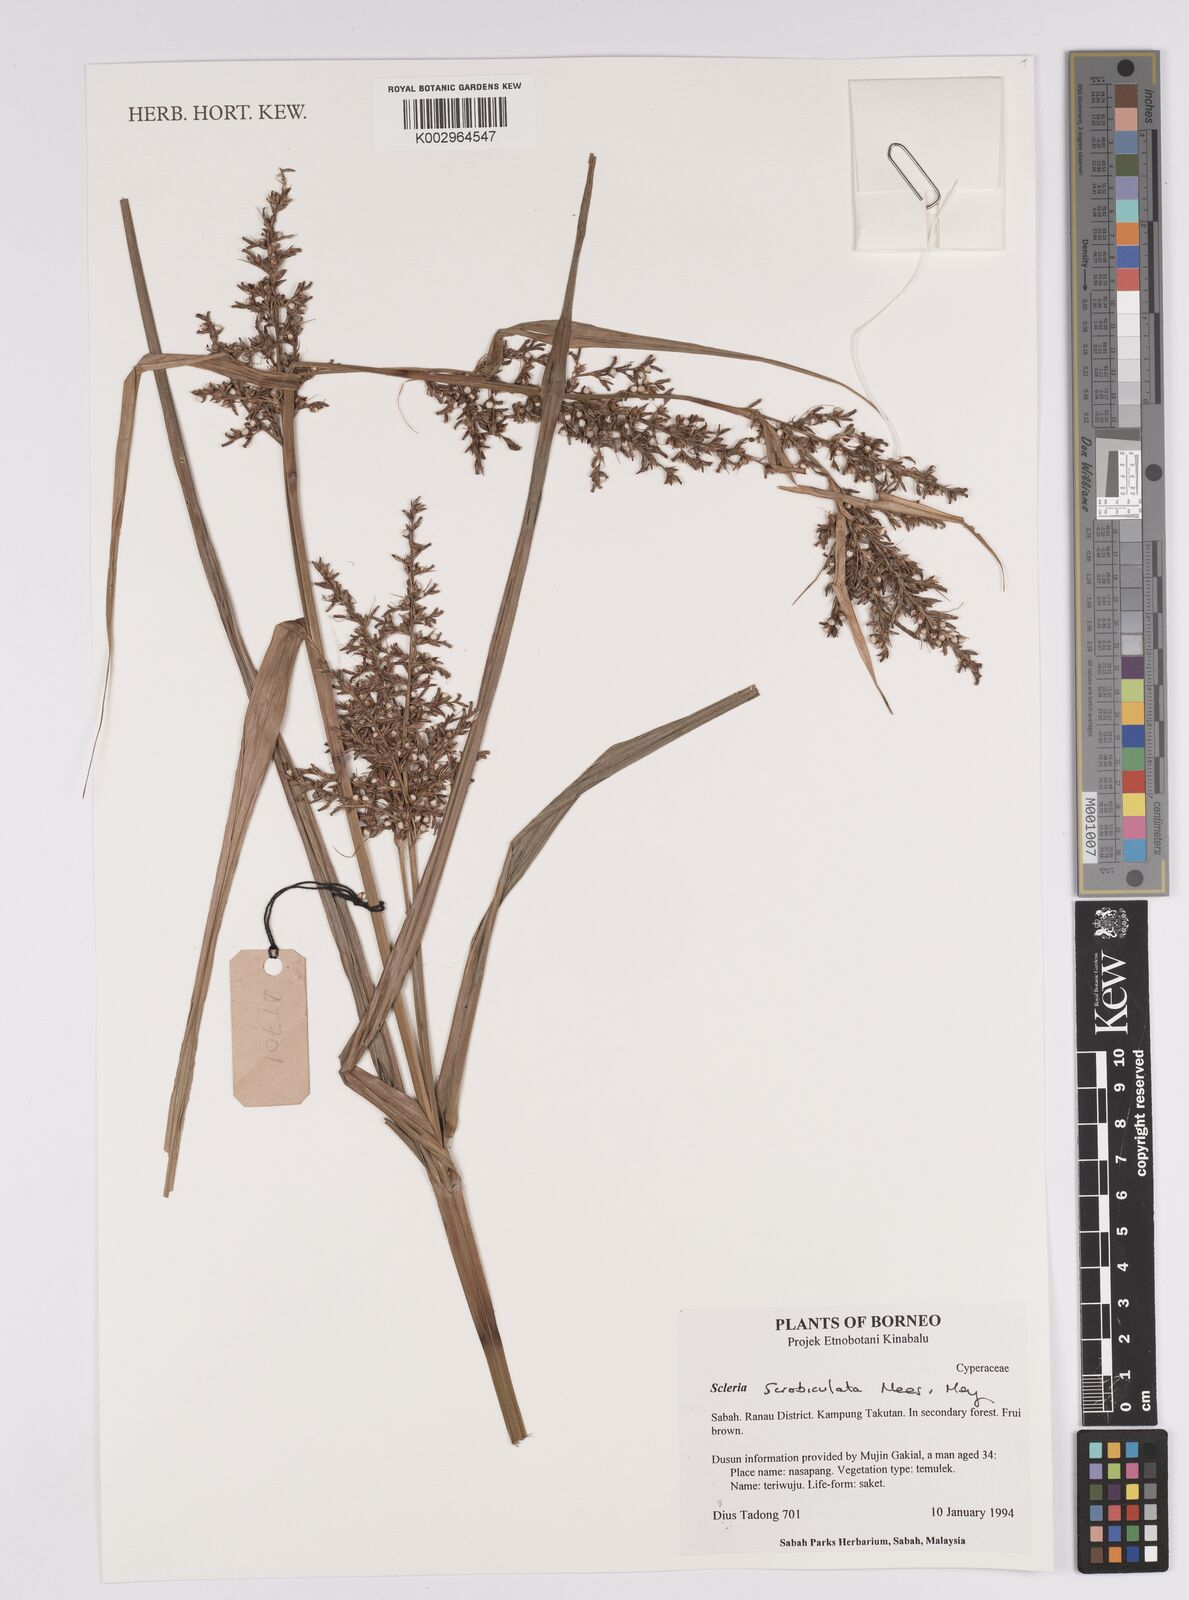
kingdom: Plantae
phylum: Tracheophyta
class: Liliopsida
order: Poales
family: Cyperaceae
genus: Scleria
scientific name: Scleria scrobiculata
